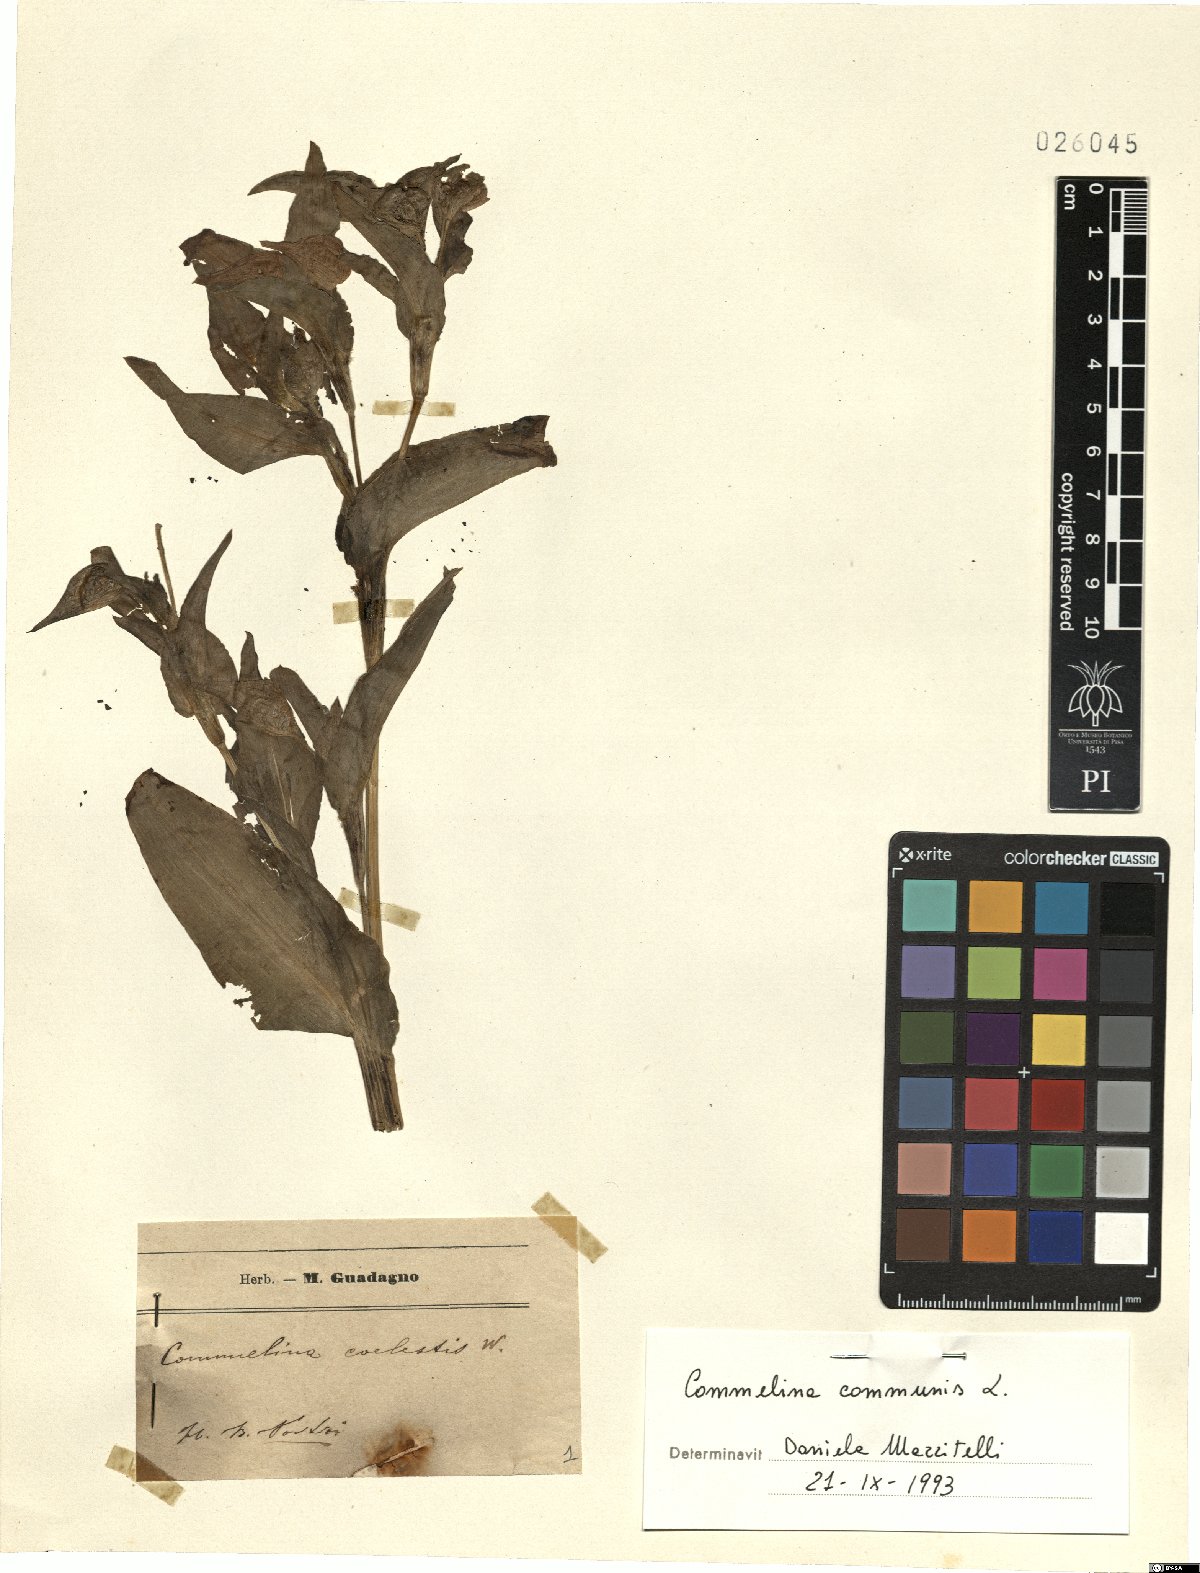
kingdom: Plantae
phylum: Tracheophyta
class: Liliopsida
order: Commelinales
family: Commelinaceae
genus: Commelina
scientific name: Commelina communis
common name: Asiatic dayflower
